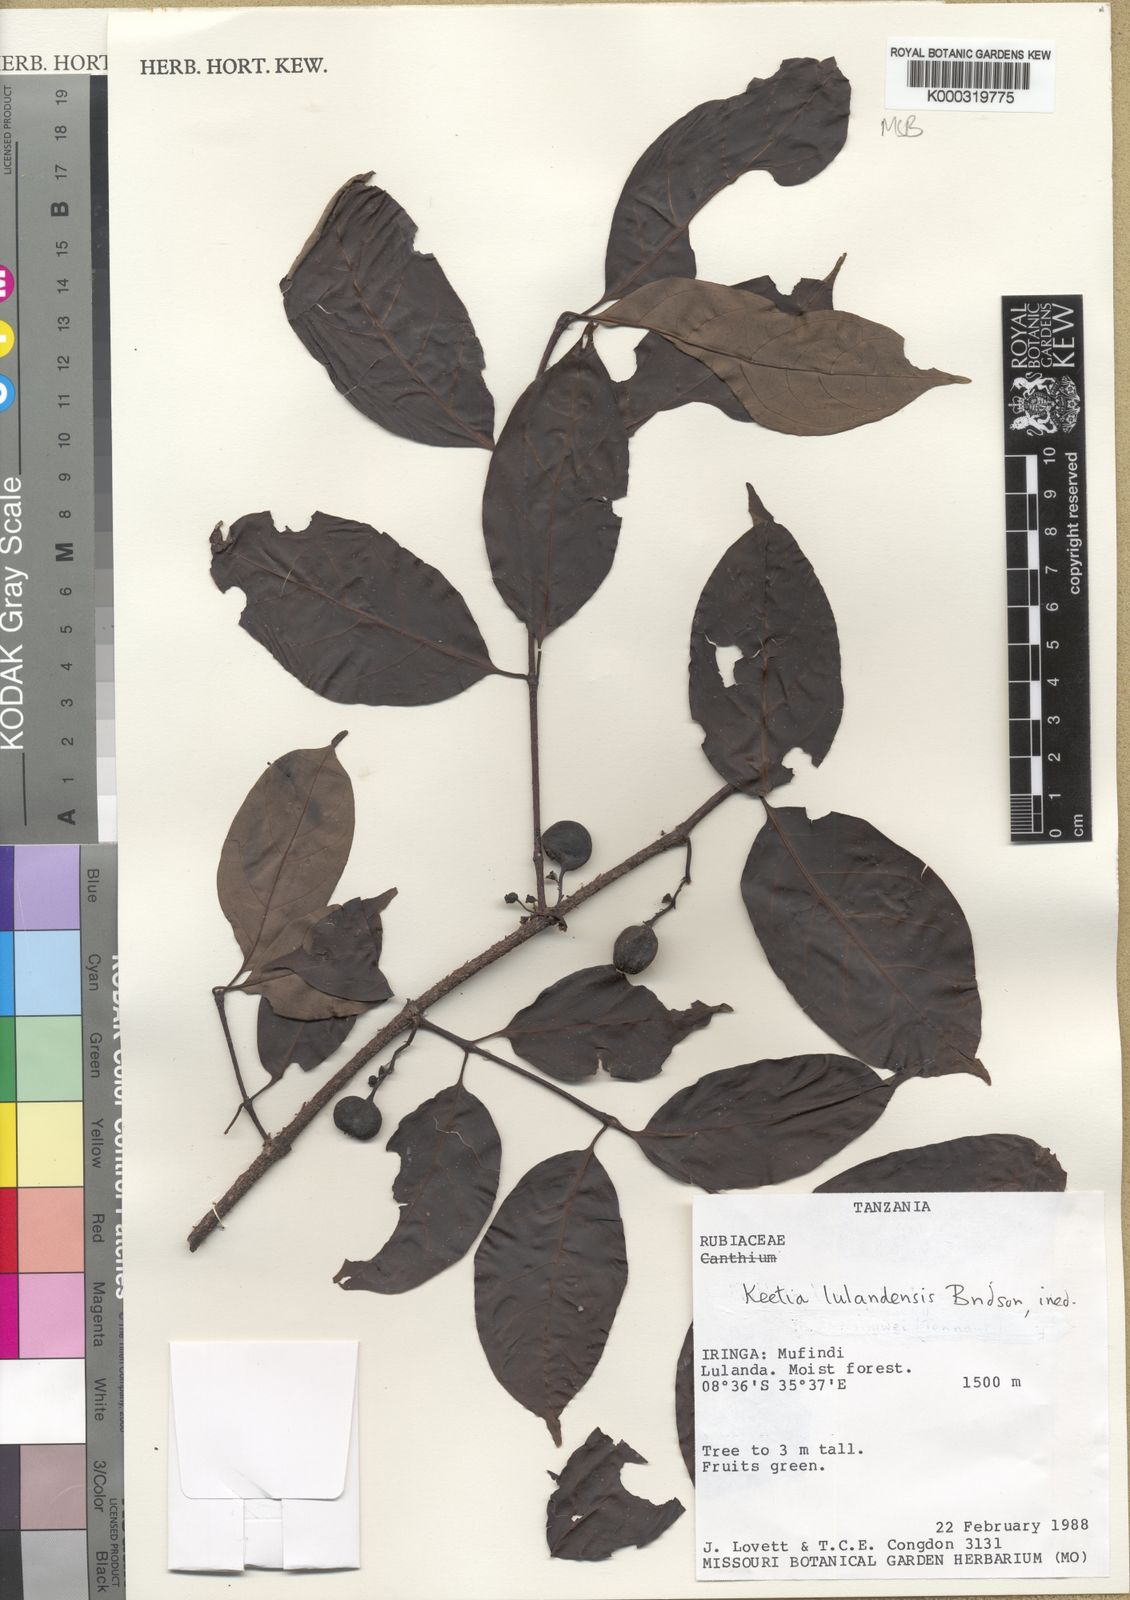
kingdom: Plantae
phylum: Tracheophyta
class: Magnoliopsida
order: Gentianales
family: Rubiaceae
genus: Keetia
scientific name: Keetia lulandensis
